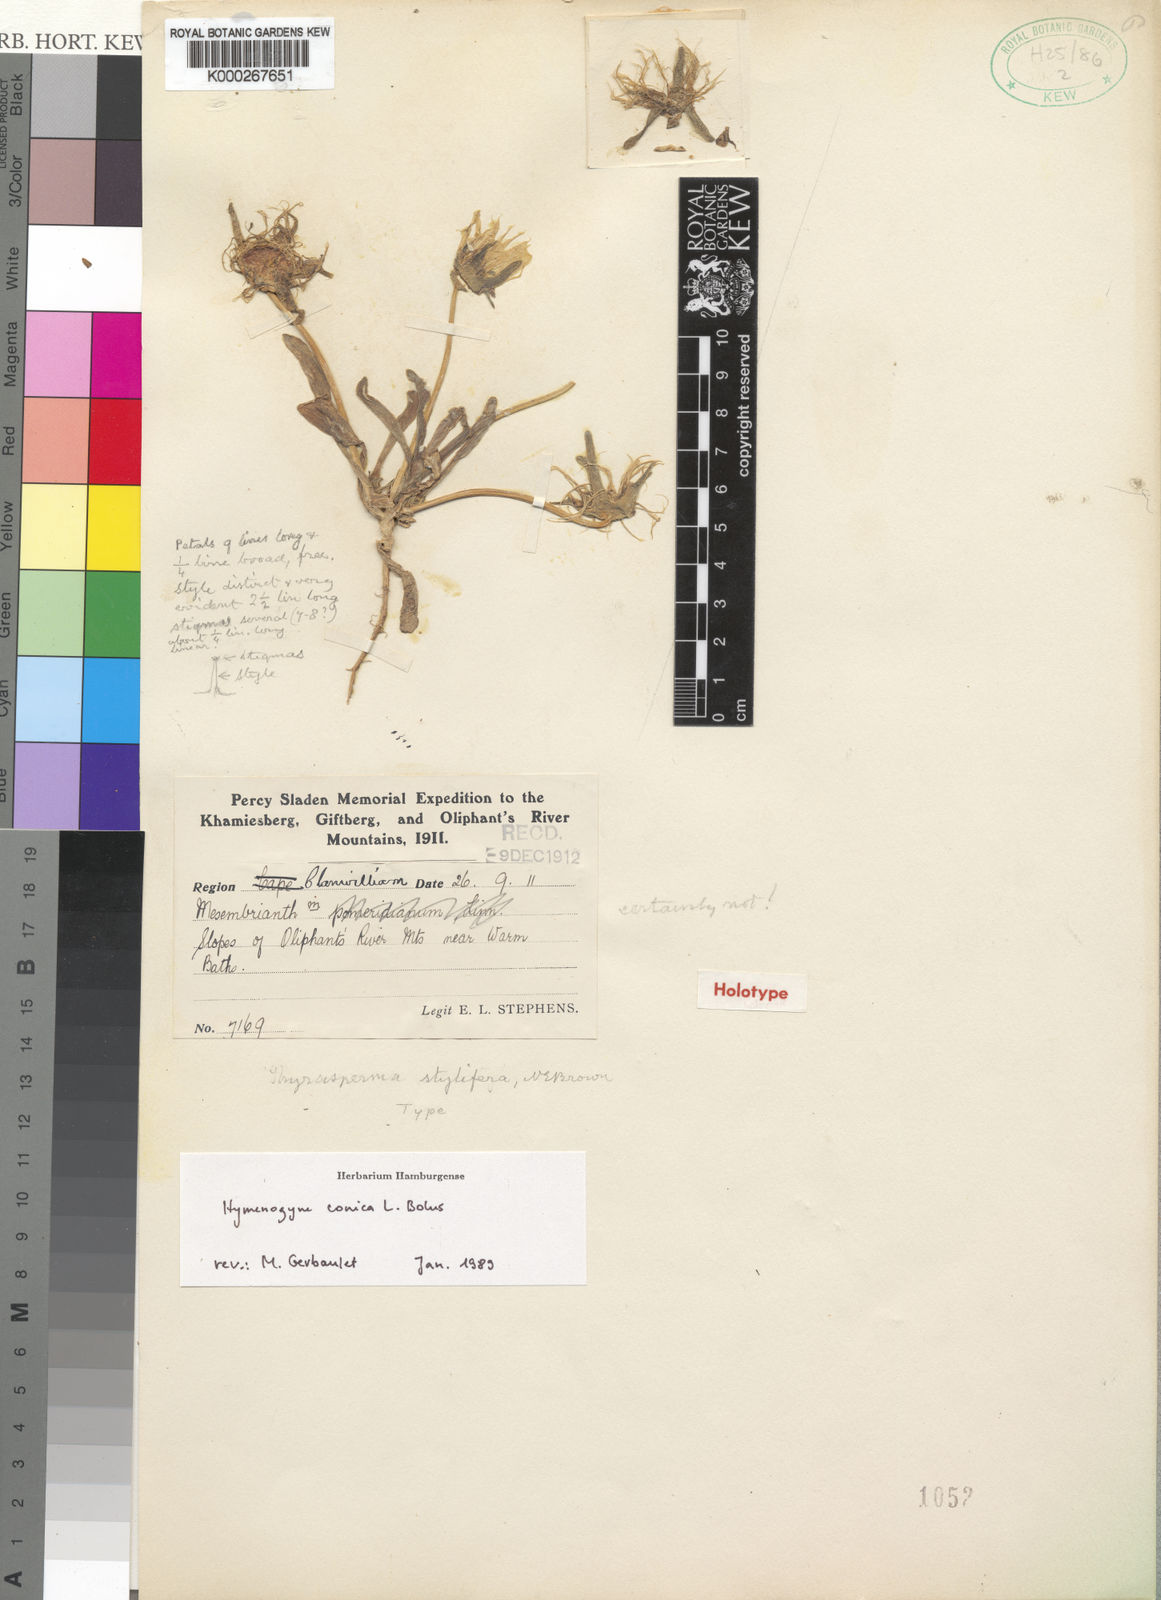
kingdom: Plantae
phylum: Tracheophyta
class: Magnoliopsida
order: Caryophyllales
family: Aizoaceae
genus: Hymenogyne
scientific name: Hymenogyne conica
